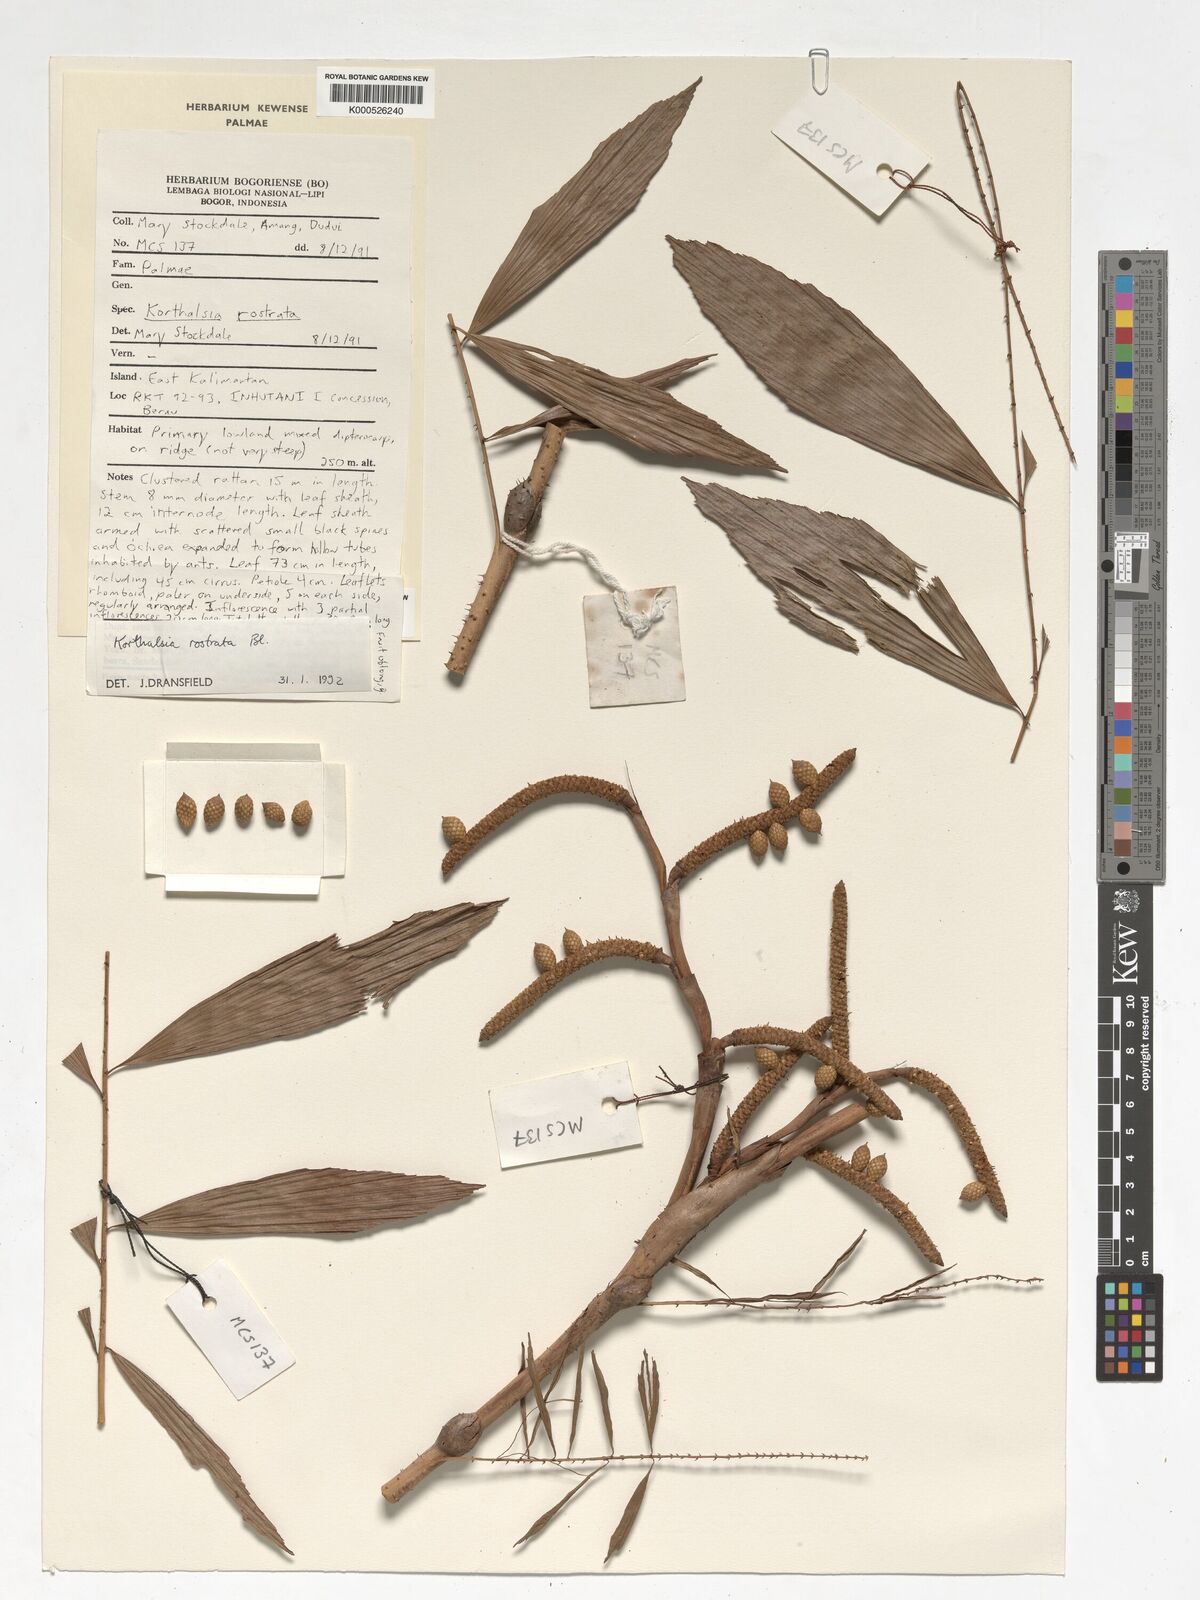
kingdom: Plantae
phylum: Tracheophyta
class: Liliopsida
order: Arecales
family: Arecaceae
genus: Korthalsia
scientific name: Korthalsia rostrata
